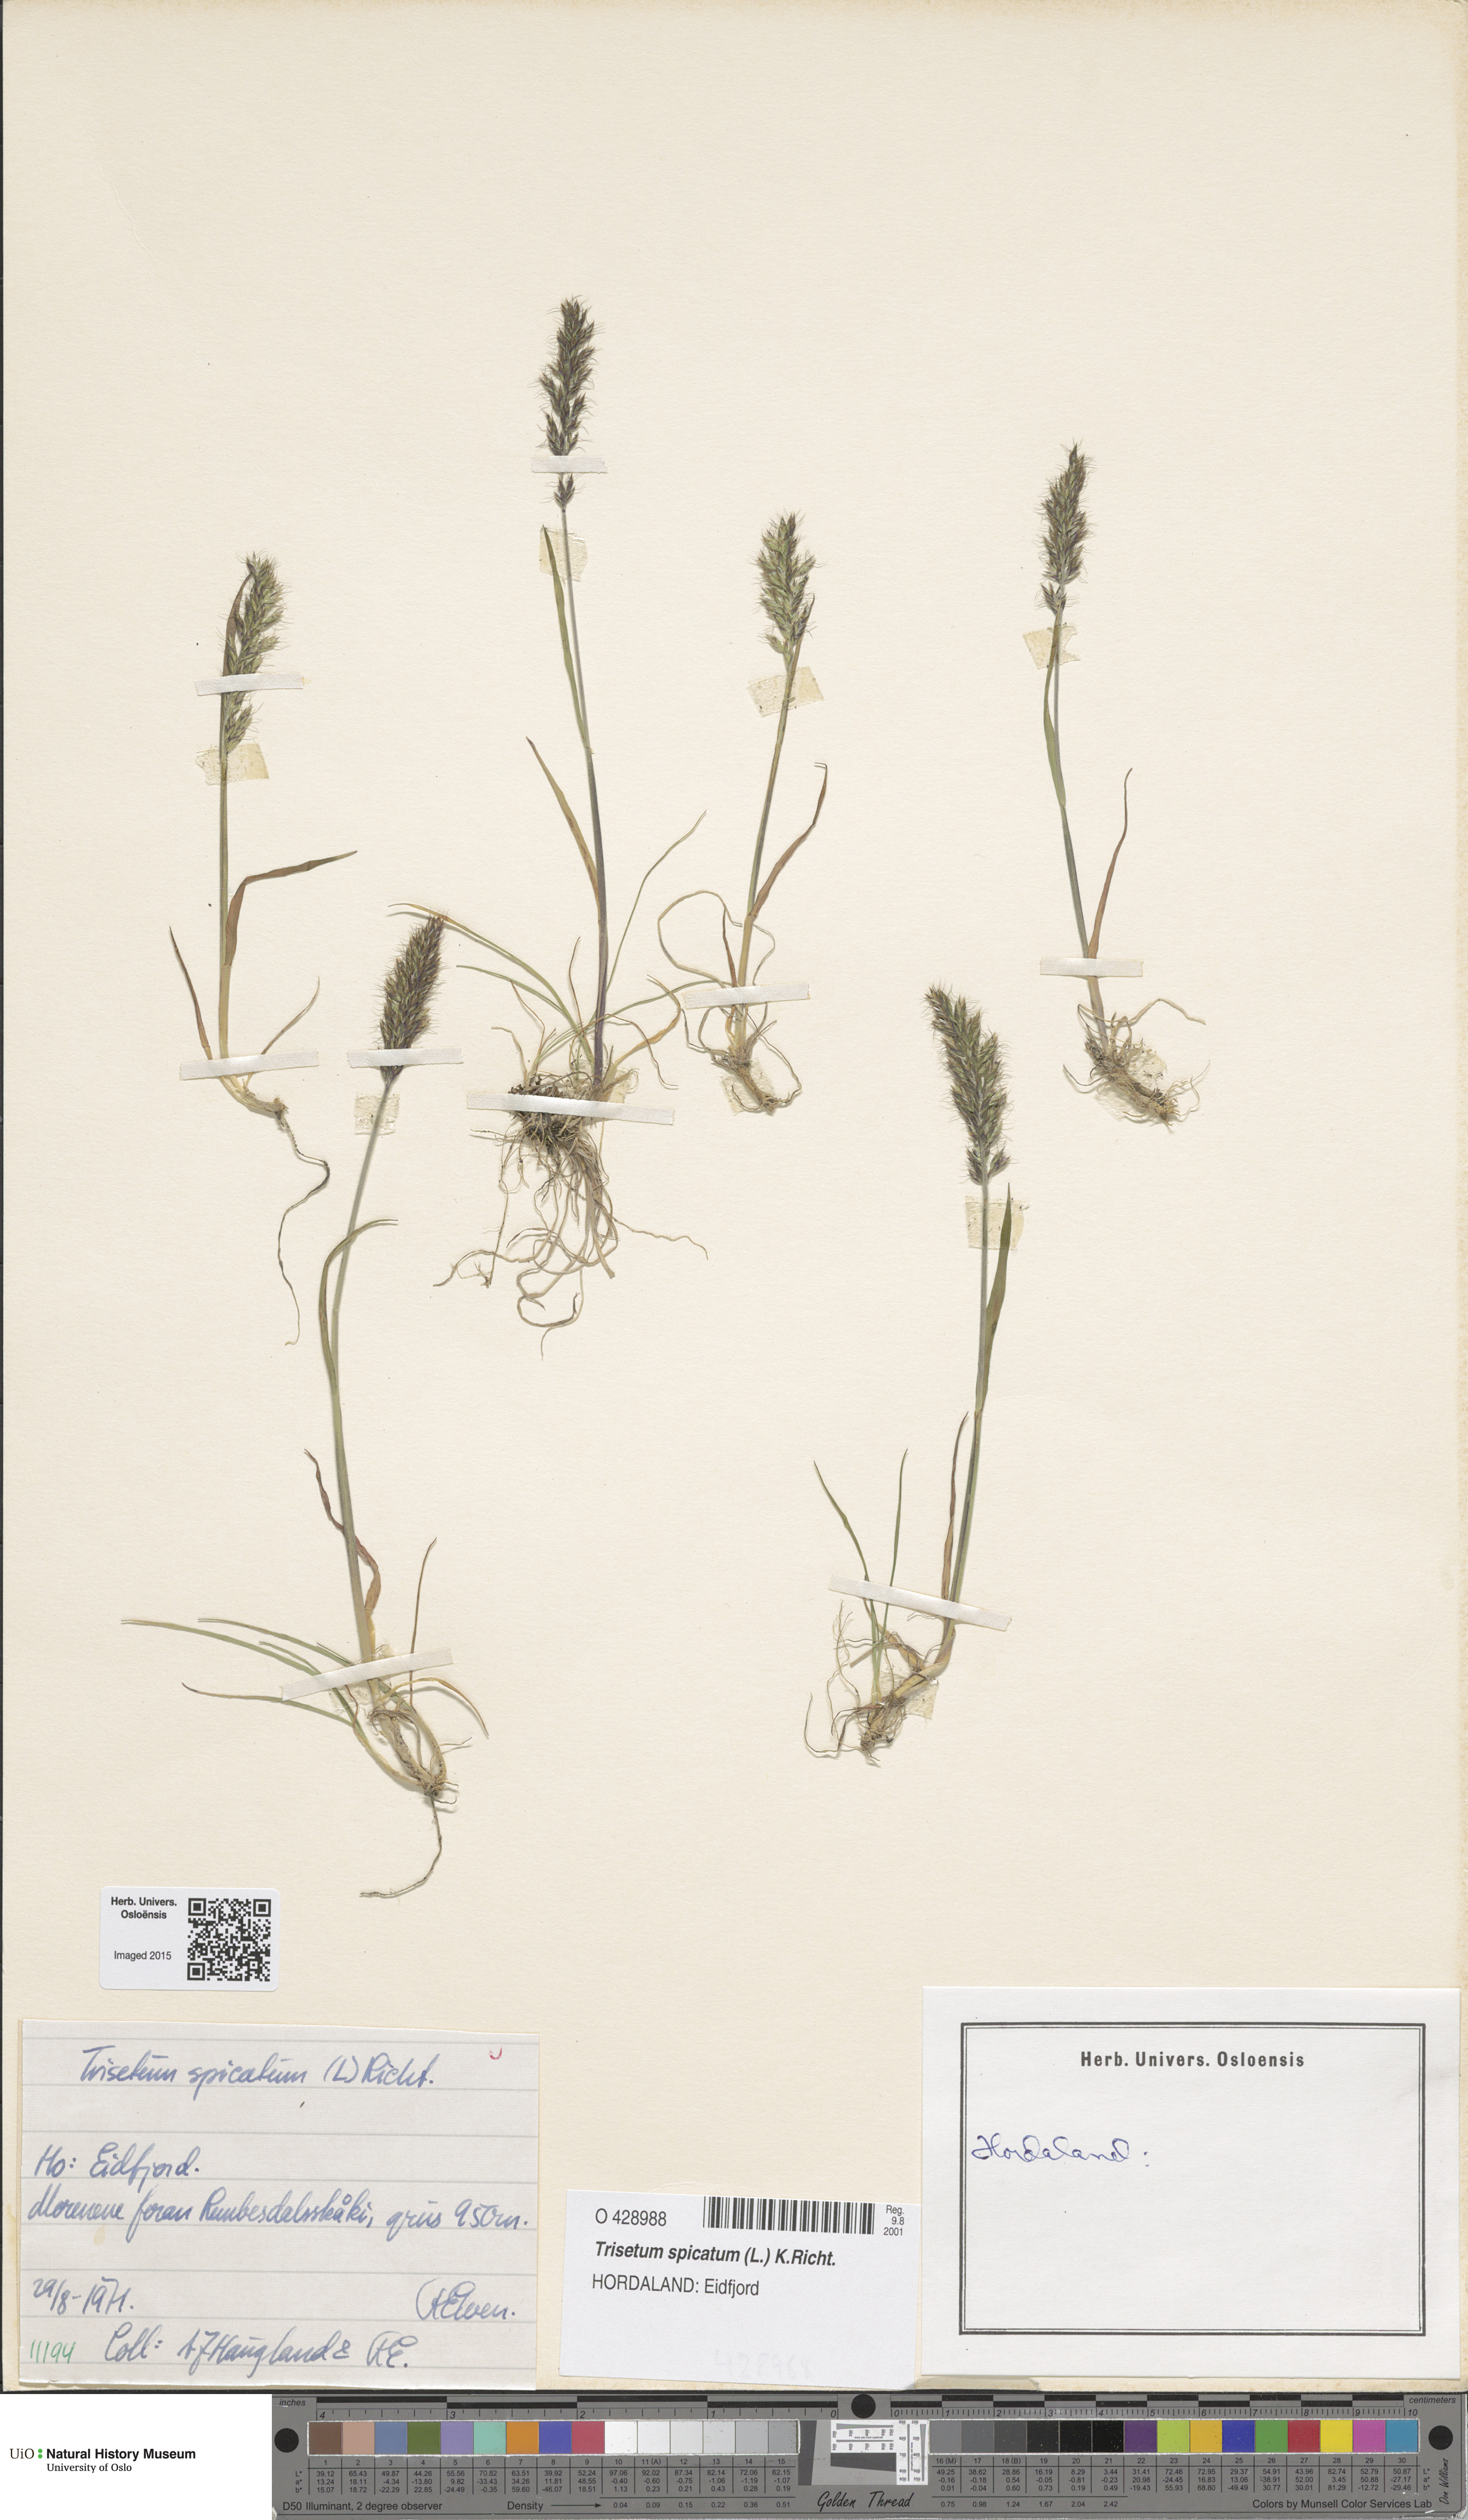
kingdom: Plantae
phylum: Tracheophyta
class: Liliopsida
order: Poales
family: Poaceae
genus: Koeleria
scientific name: Koeleria spicata
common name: Mountain trisetum
